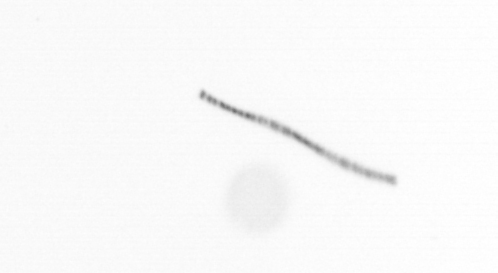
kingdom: Chromista
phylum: Ochrophyta
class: Bacillariophyceae
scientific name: Bacillariophyceae
